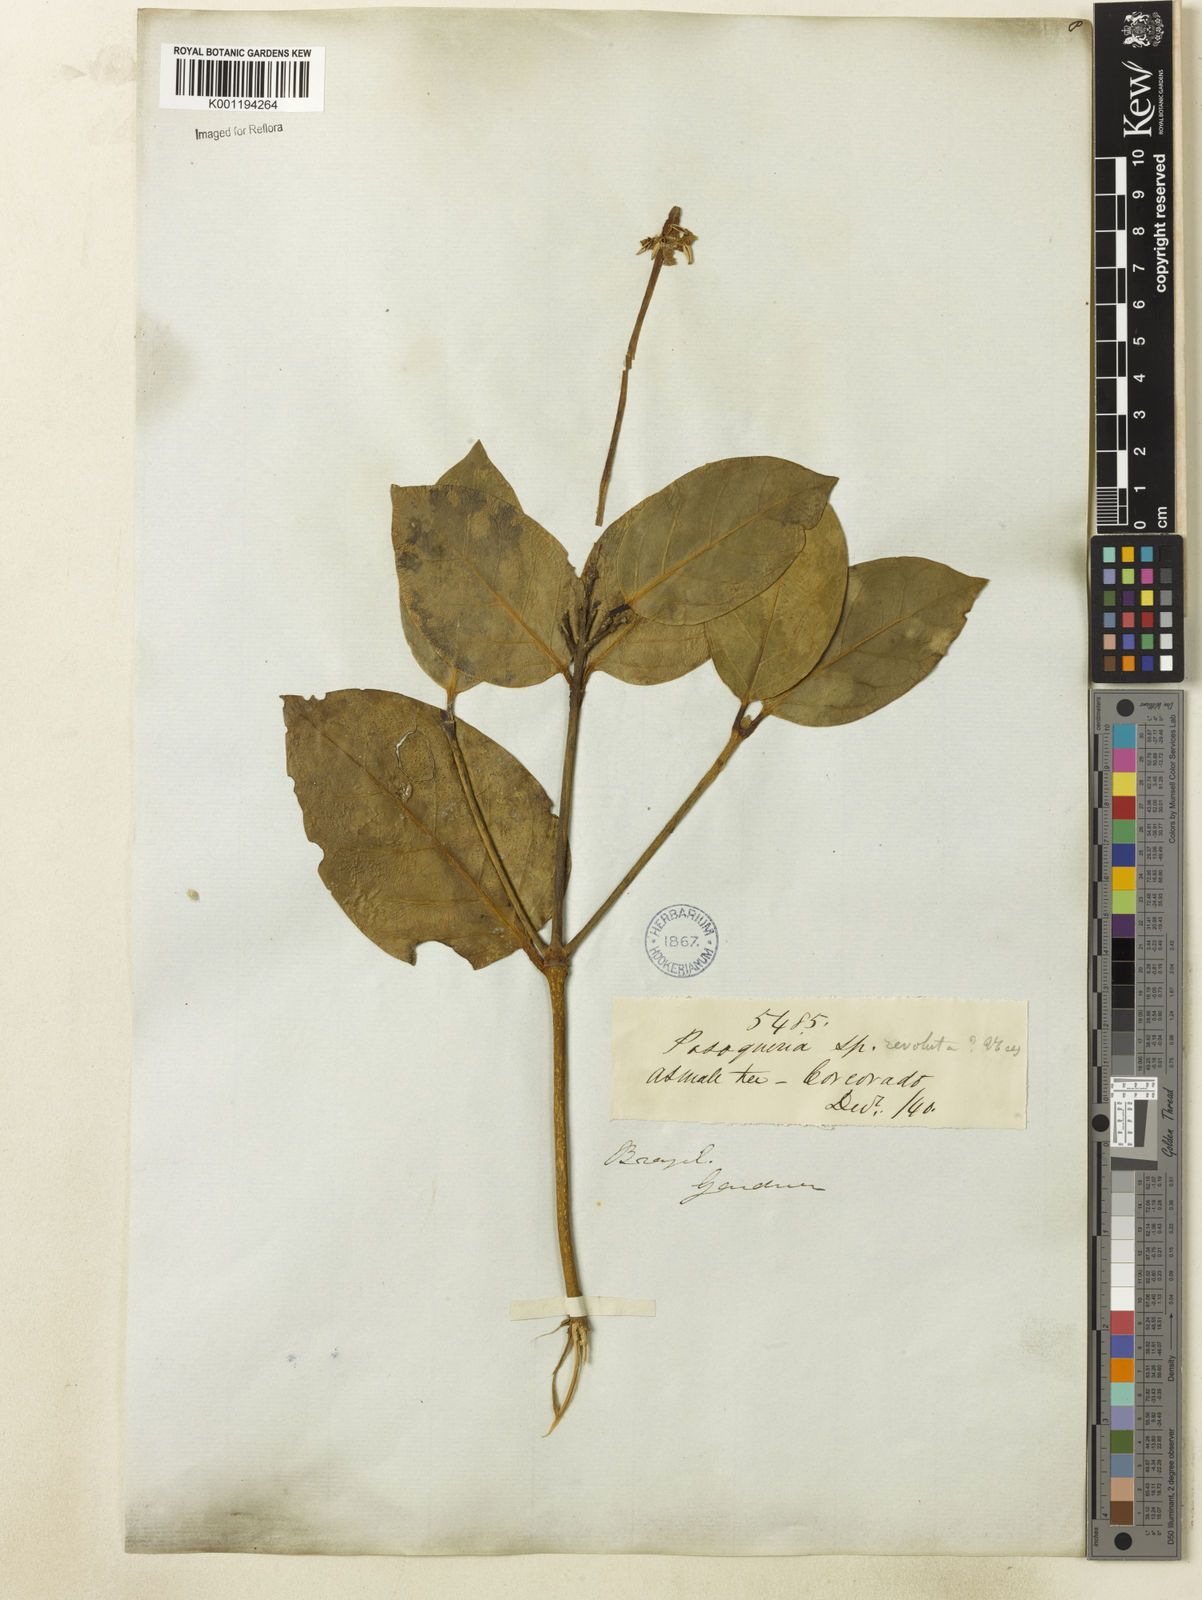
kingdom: Plantae
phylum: Tracheophyta
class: Magnoliopsida
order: Gentianales
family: Rubiaceae
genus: Posoqueria
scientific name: Posoqueria latifolia
